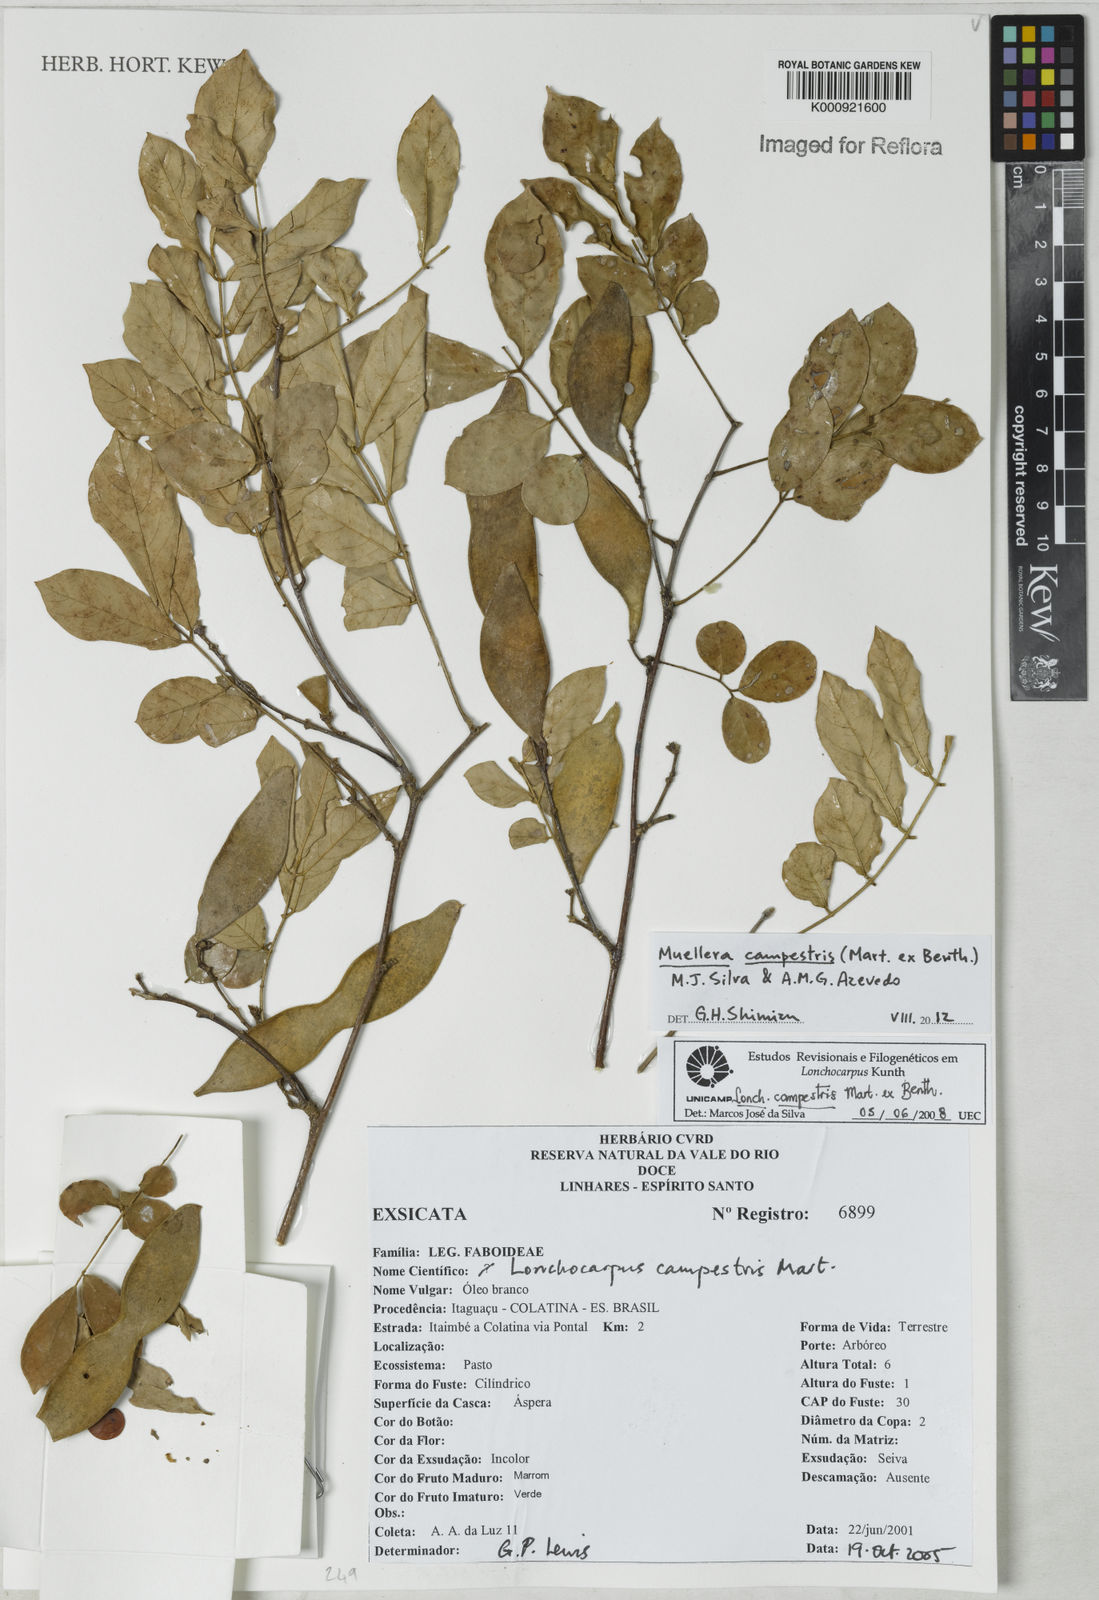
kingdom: Plantae
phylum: Tracheophyta
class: Magnoliopsida
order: Fabales
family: Fabaceae
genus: Muellera
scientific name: Muellera campestris
